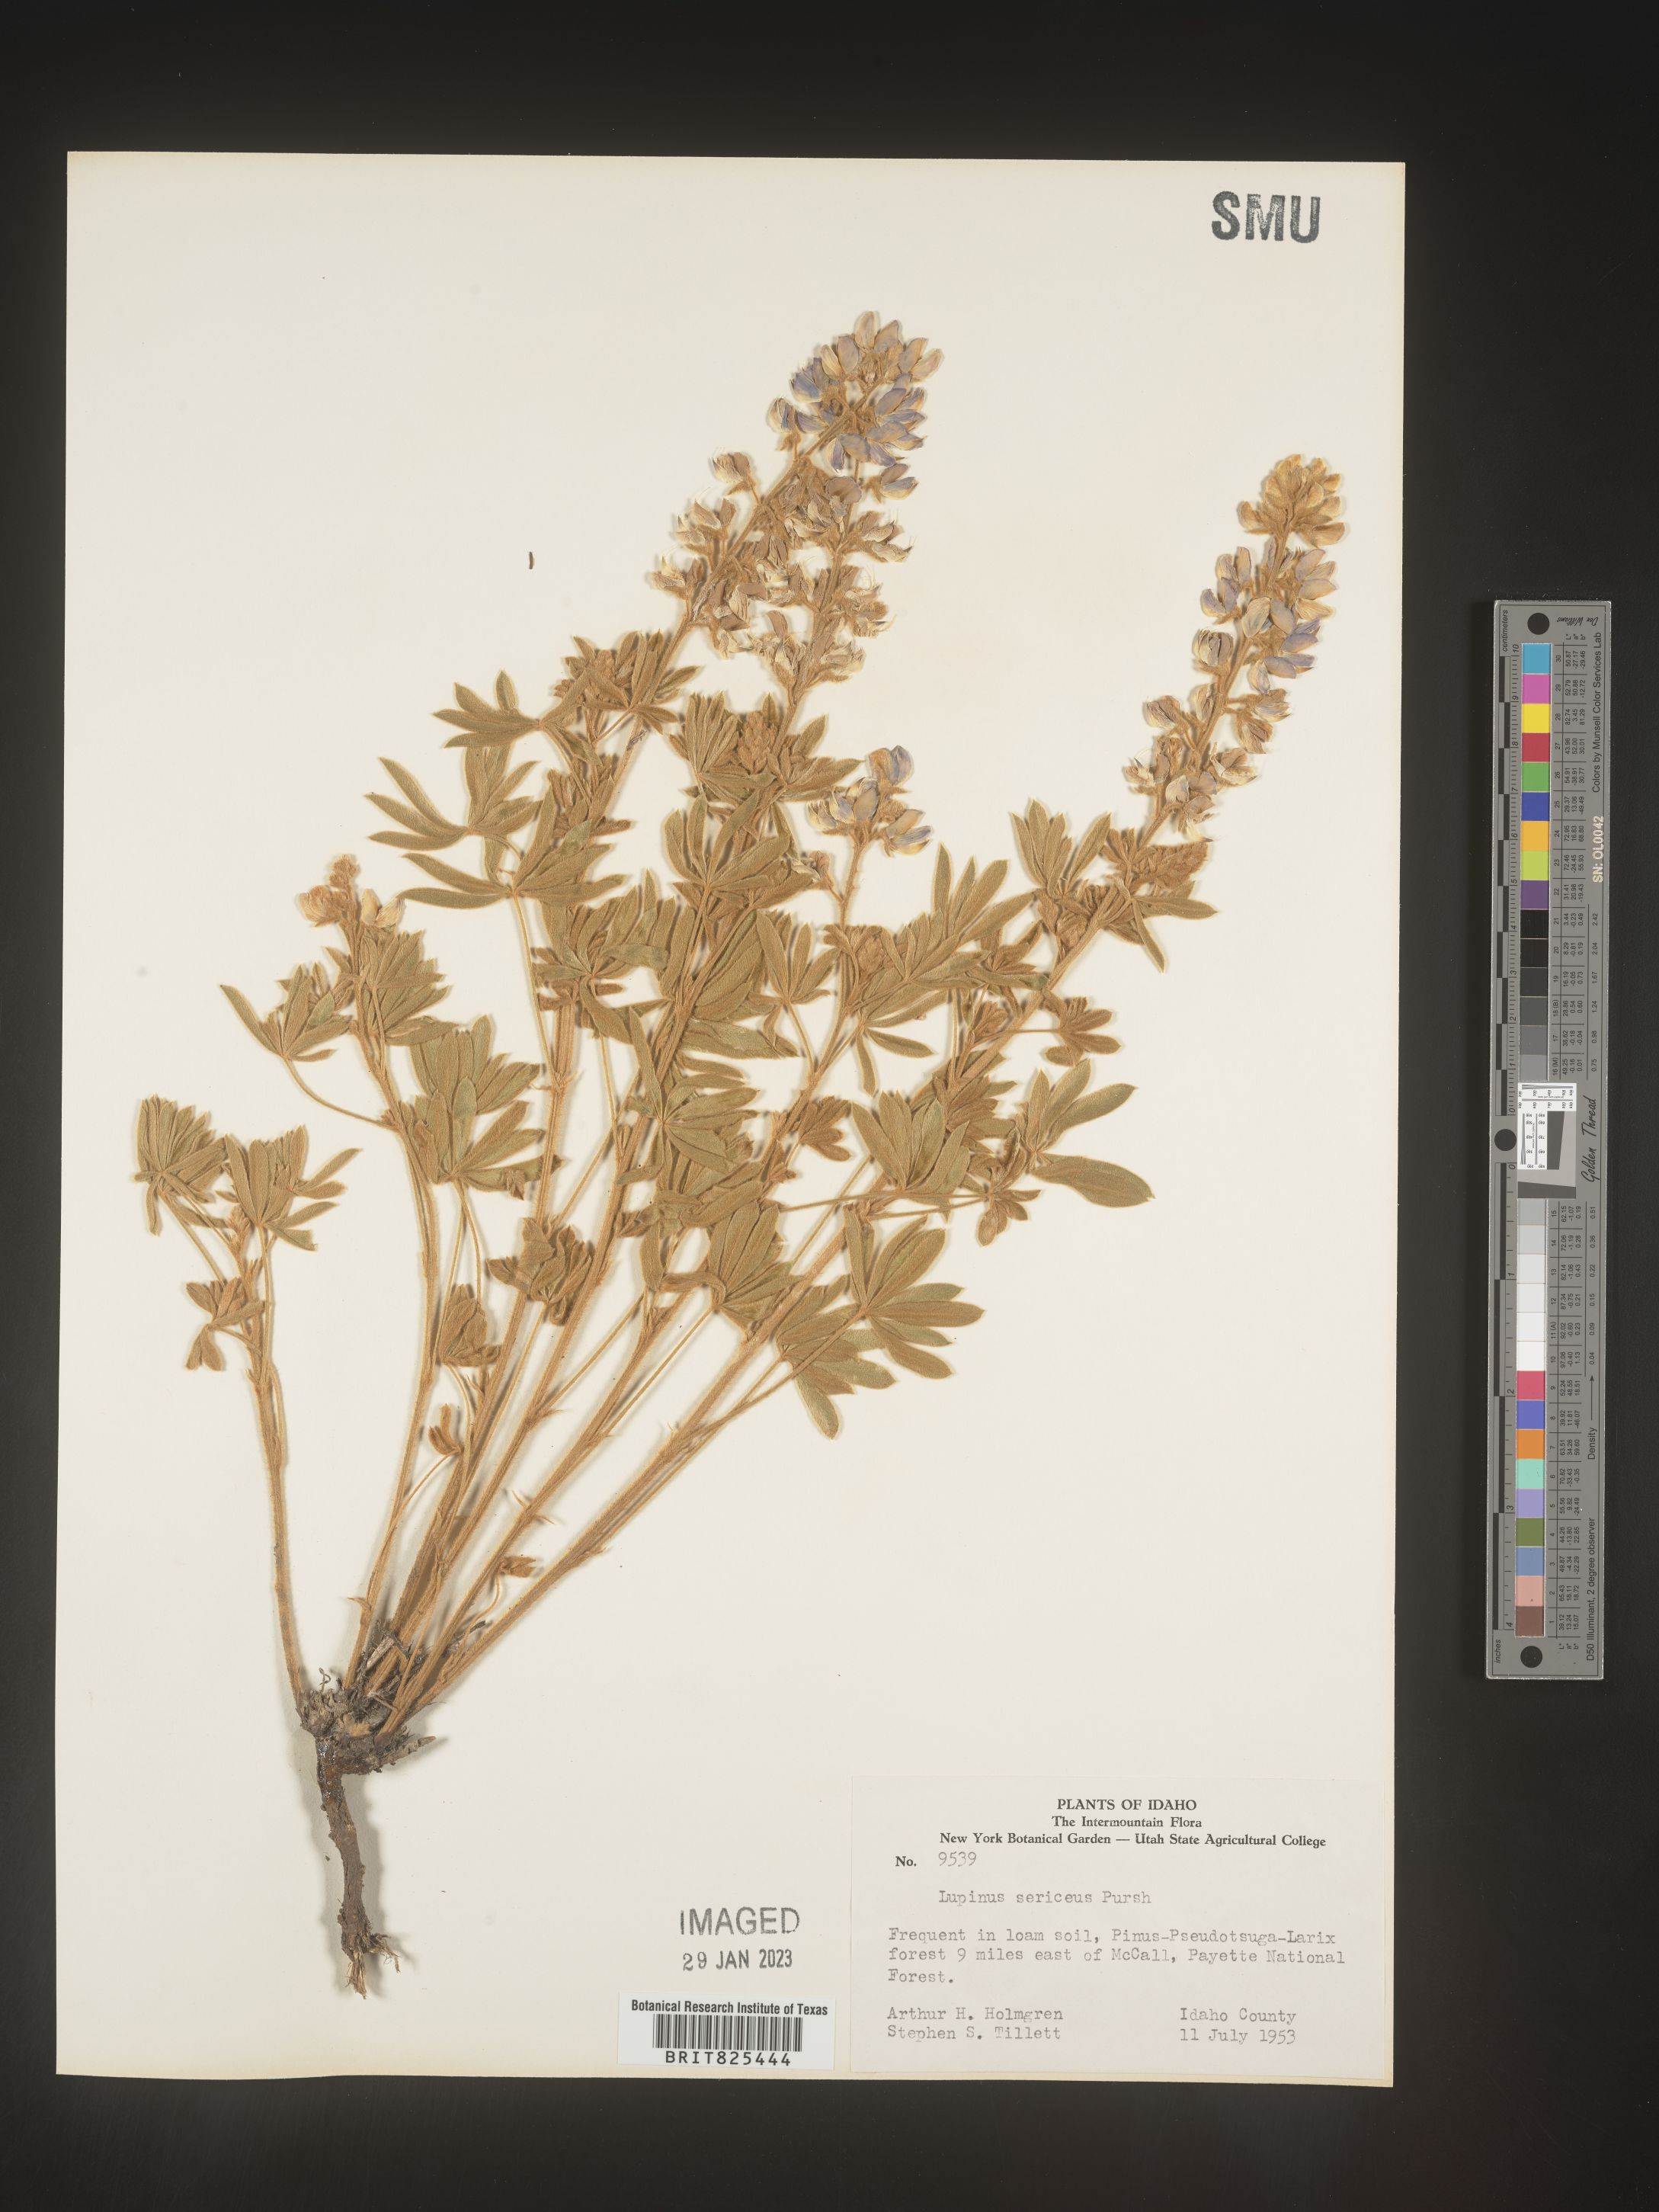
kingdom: Plantae
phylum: Tracheophyta
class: Magnoliopsida
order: Fabales
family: Fabaceae
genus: Lupinus
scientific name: Lupinus sericeus
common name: Silky lupine
